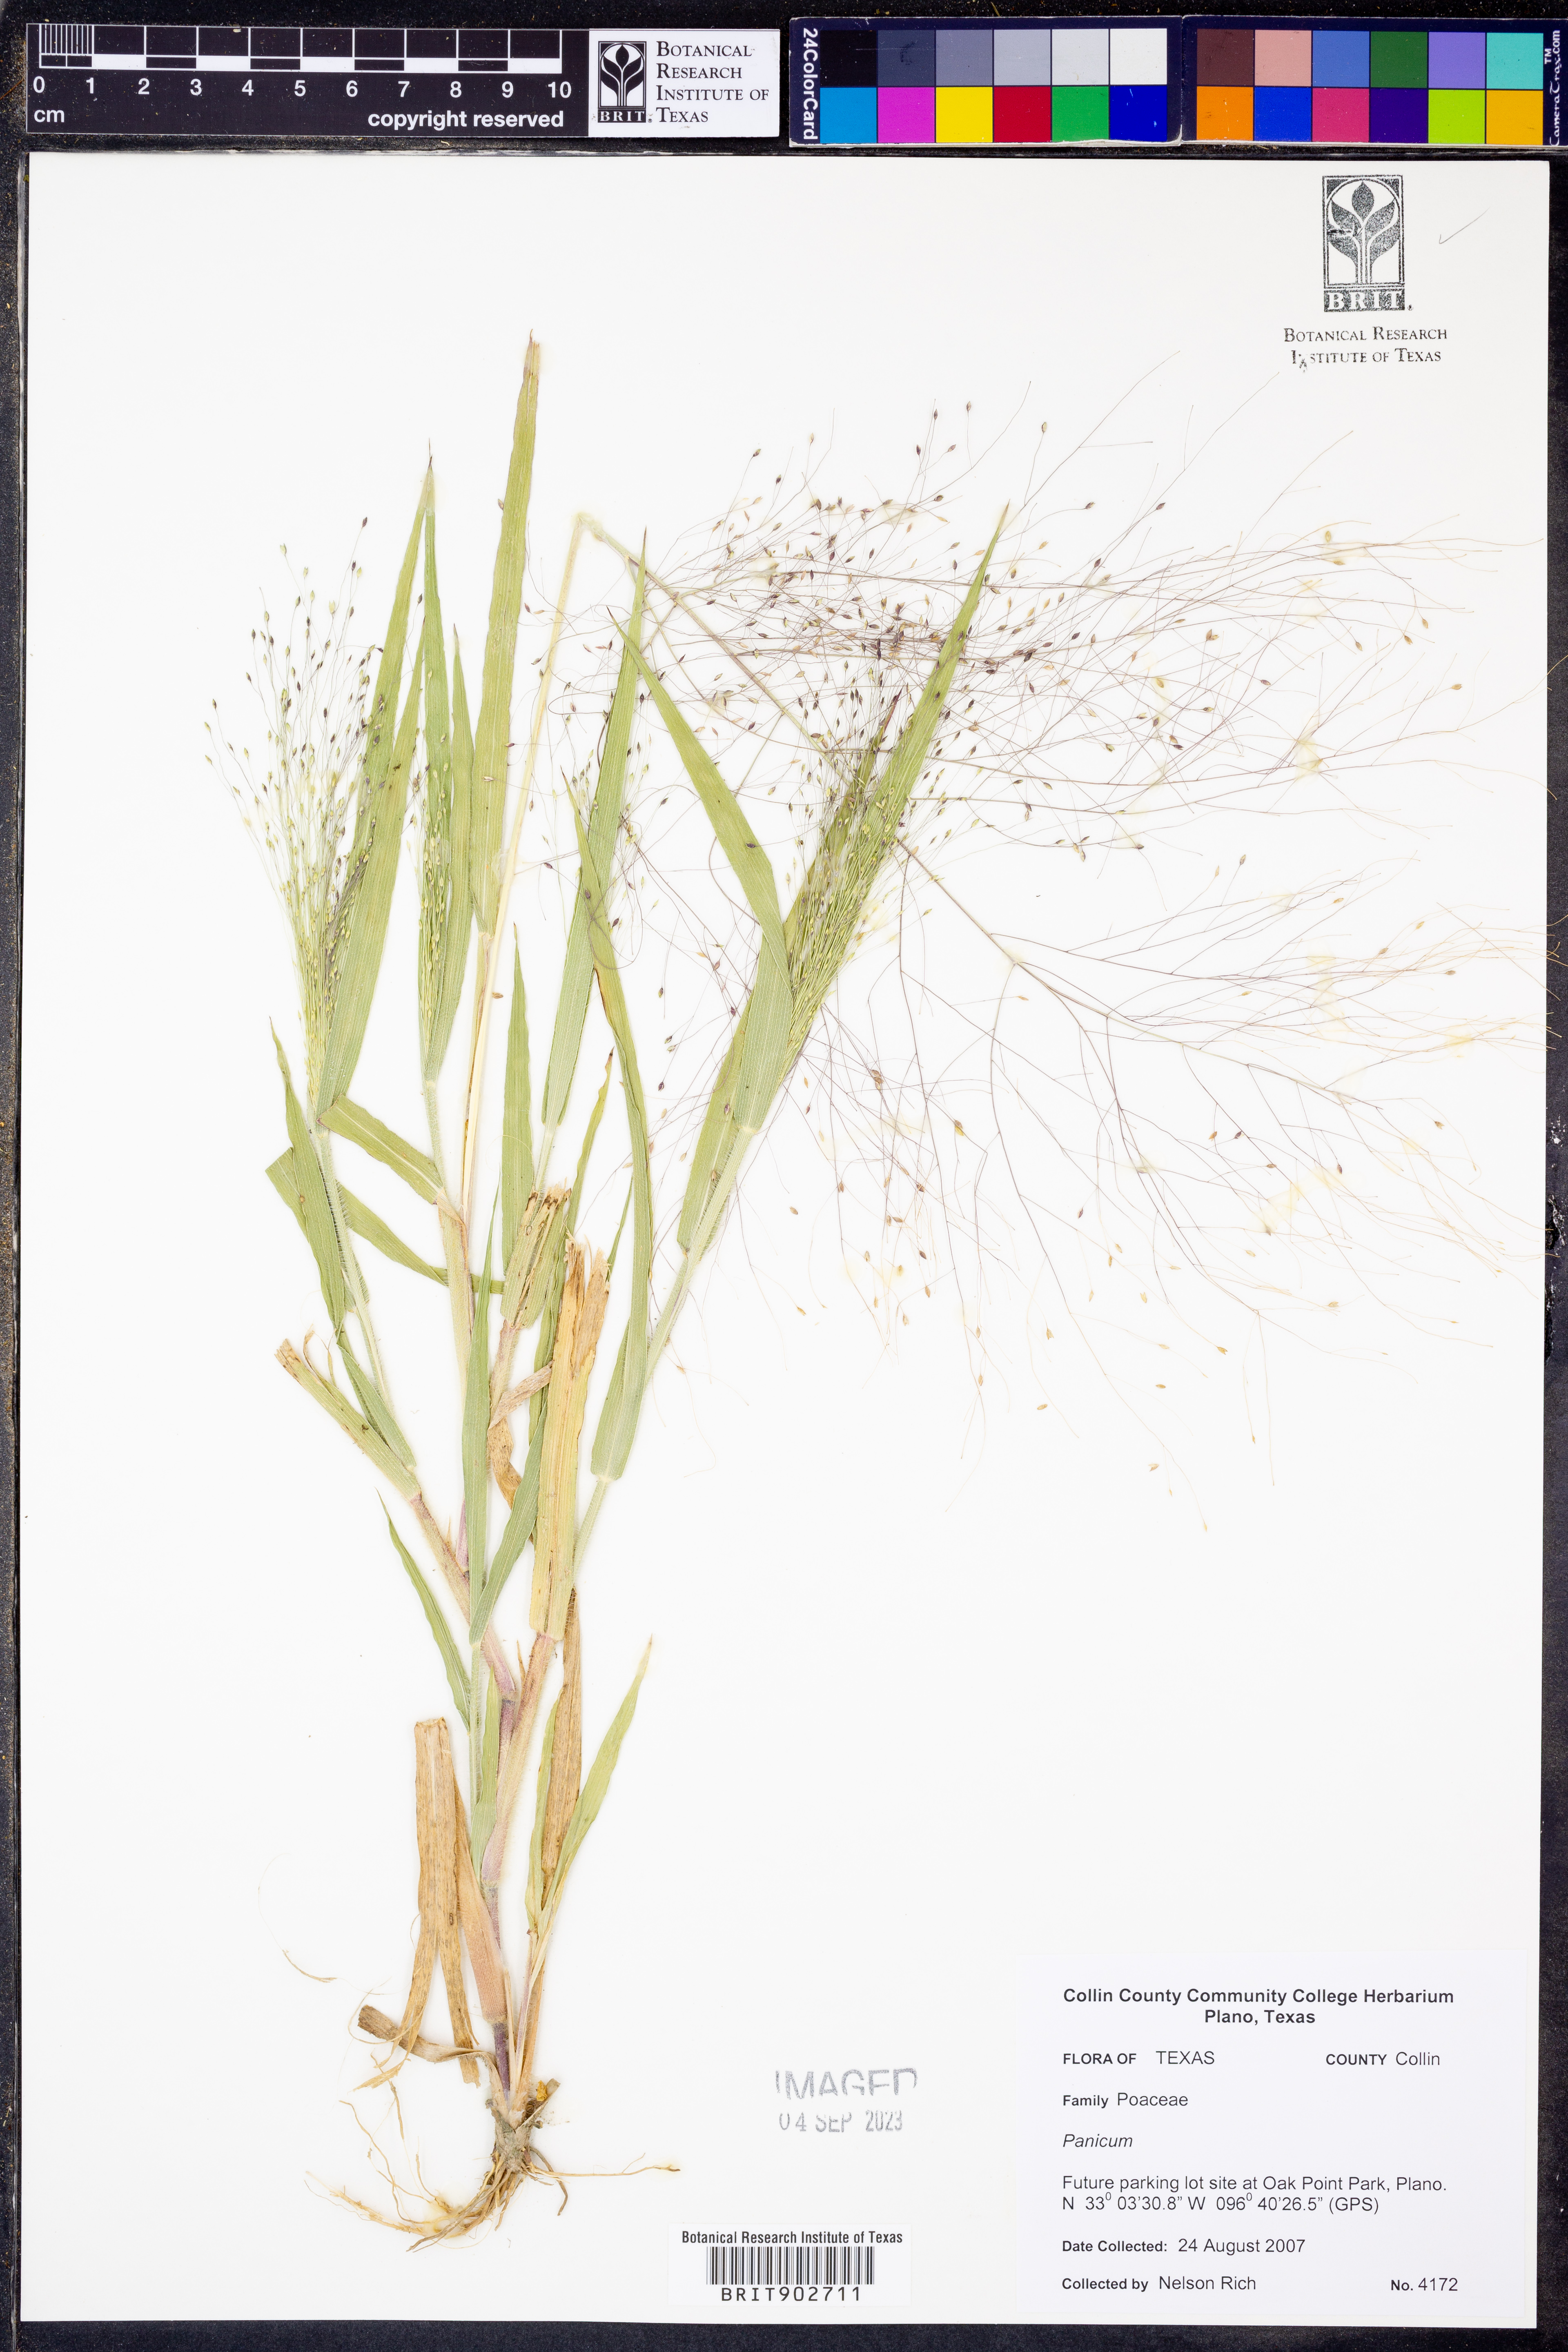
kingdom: Plantae
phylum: Tracheophyta
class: Liliopsida
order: Poales
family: Poaceae
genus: Panicum
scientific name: Panicum
